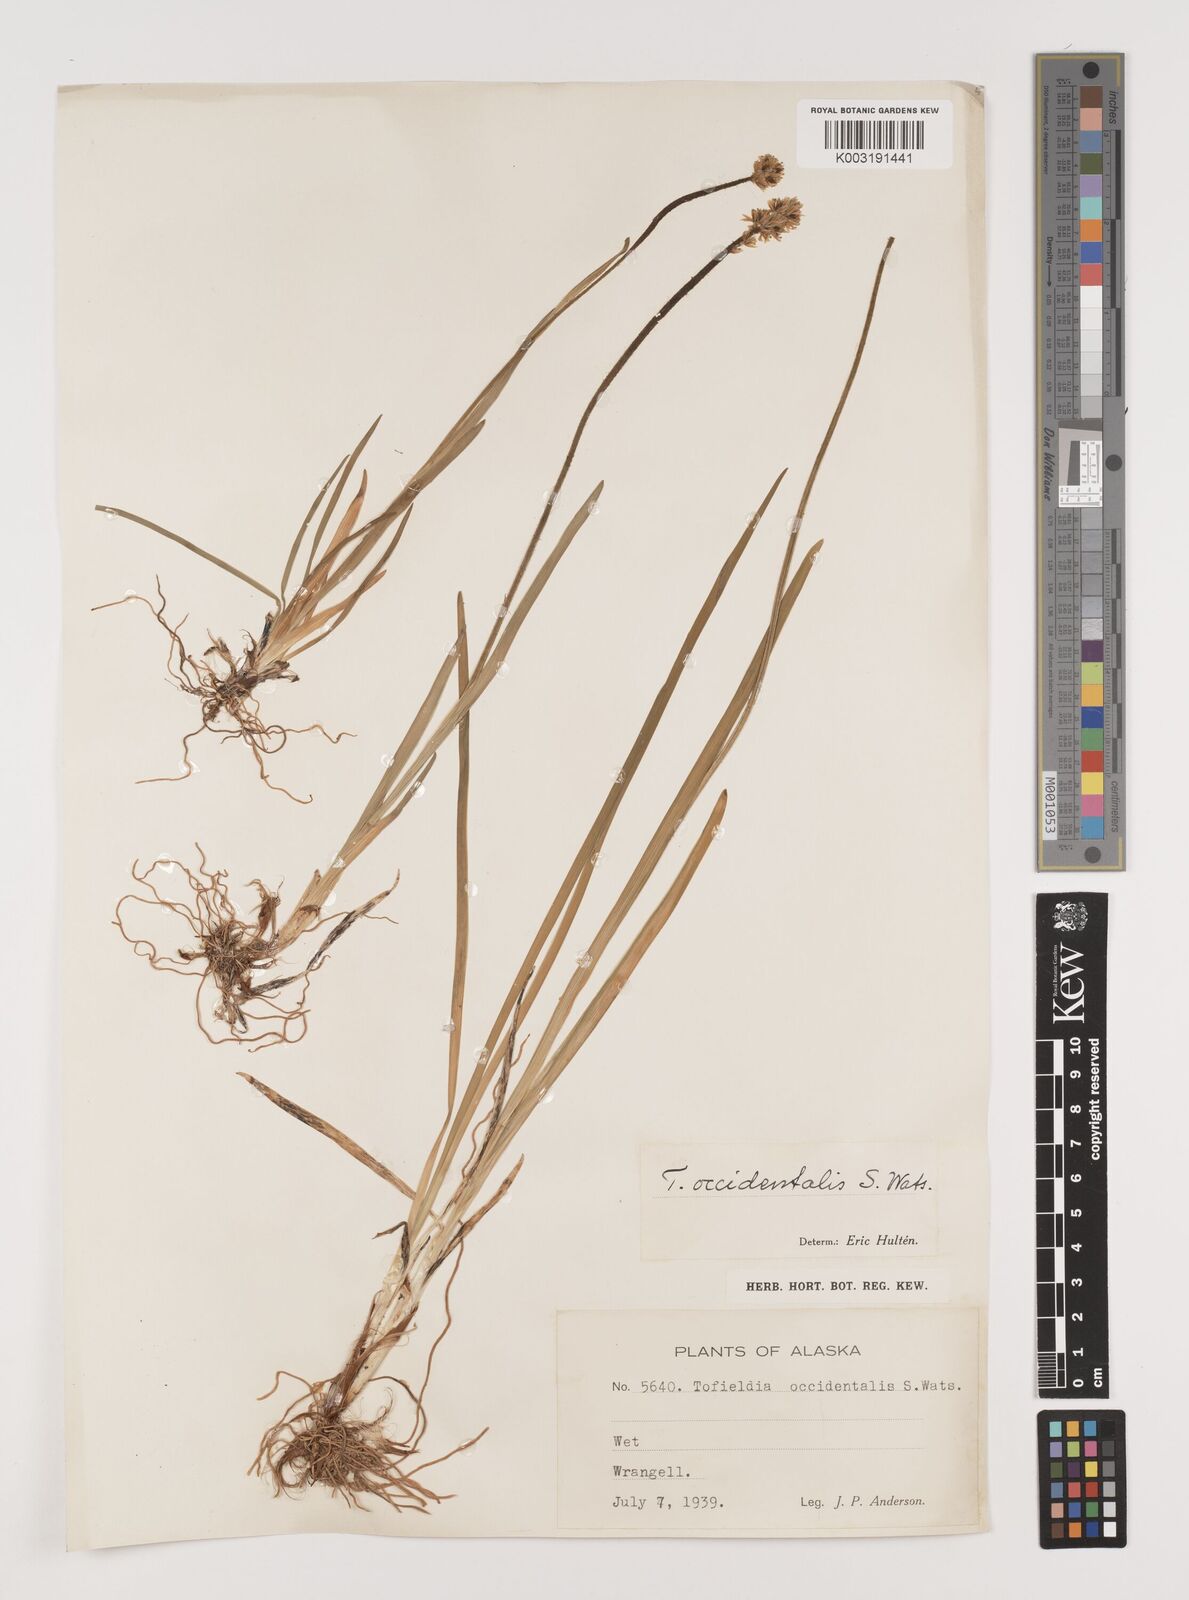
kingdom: Plantae
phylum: Tracheophyta
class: Liliopsida
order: Alismatales
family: Tofieldiaceae
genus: Triantha
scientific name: Triantha occidentalis
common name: Western false asphodel
